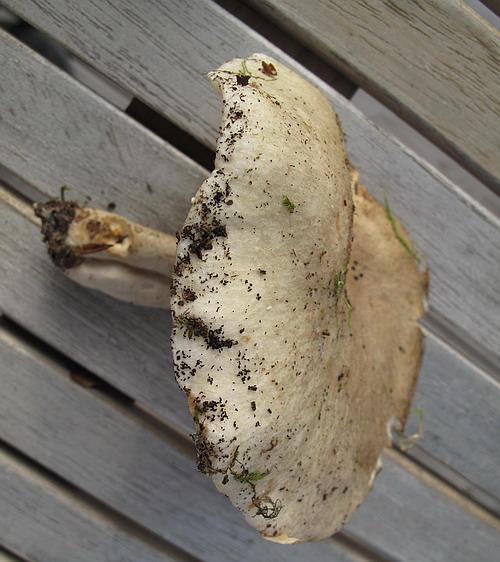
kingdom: Fungi
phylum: Basidiomycota
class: Agaricomycetes
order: Russulales
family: Russulaceae
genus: Lactarius
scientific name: Lactarius fluens
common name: lysrandet mælkehat
